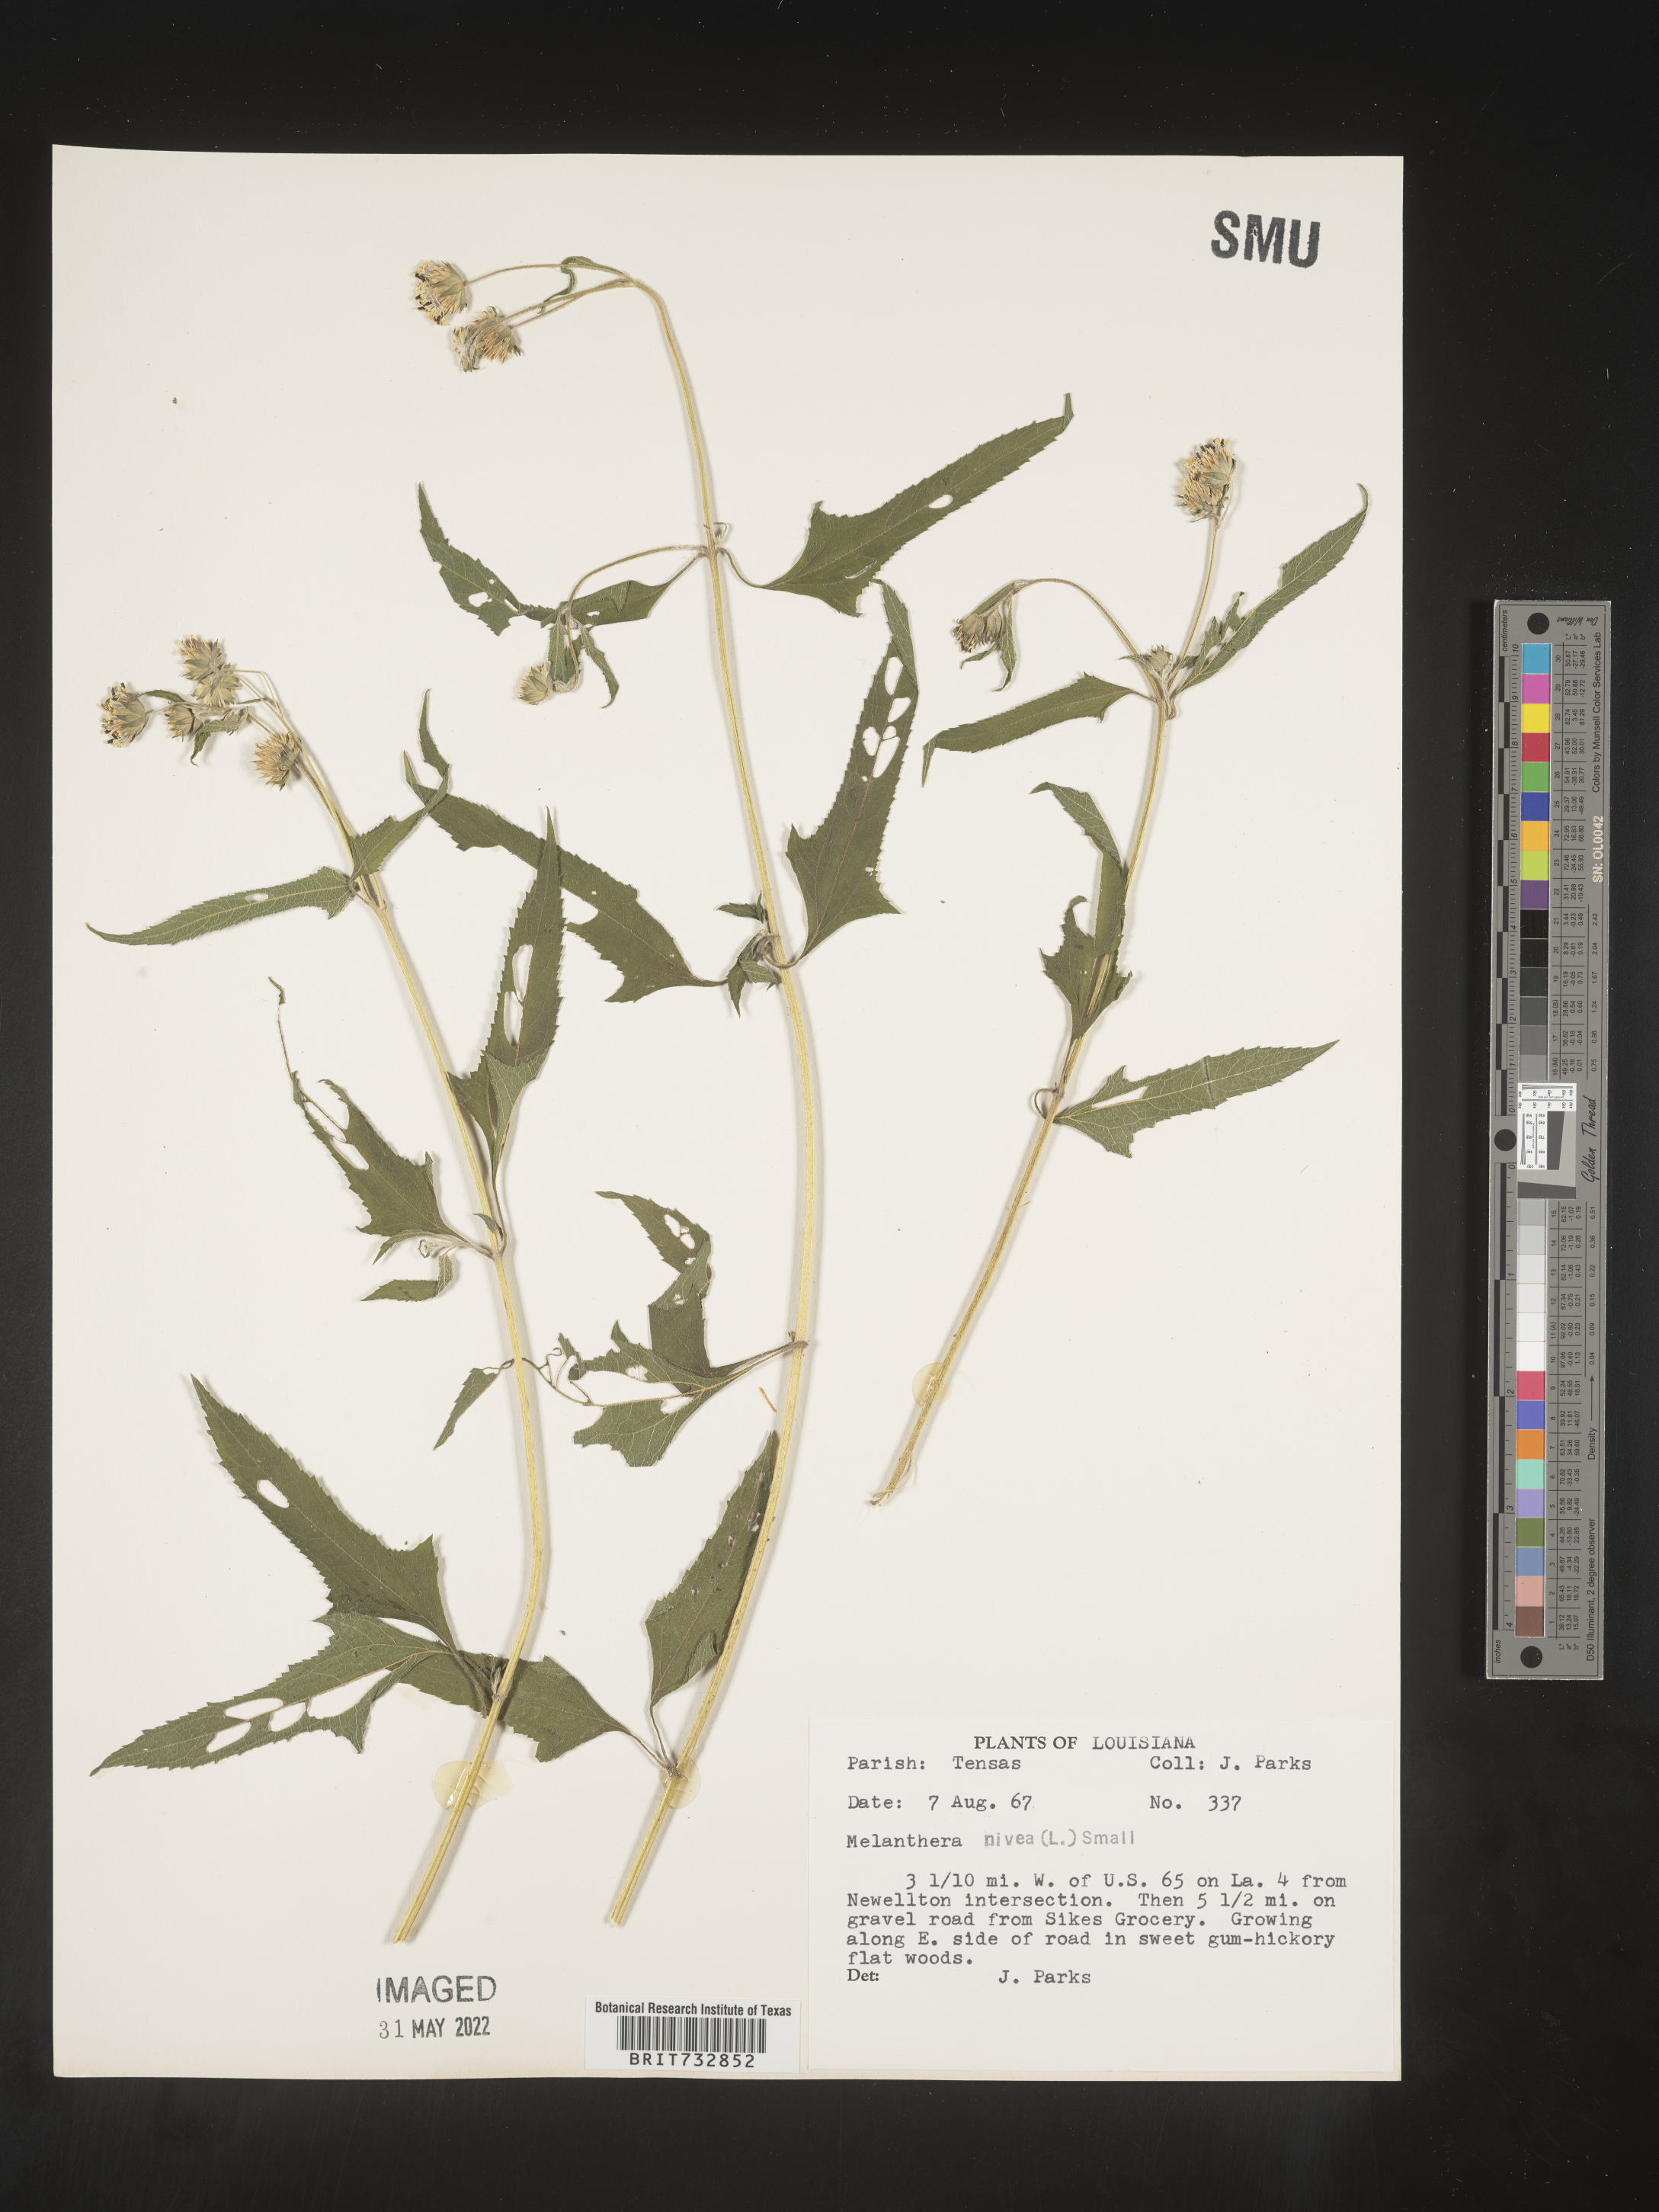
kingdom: Plantae
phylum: Tracheophyta
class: Magnoliopsida
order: Asterales
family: Asteraceae
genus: Melanthera
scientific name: Melanthera nivea
